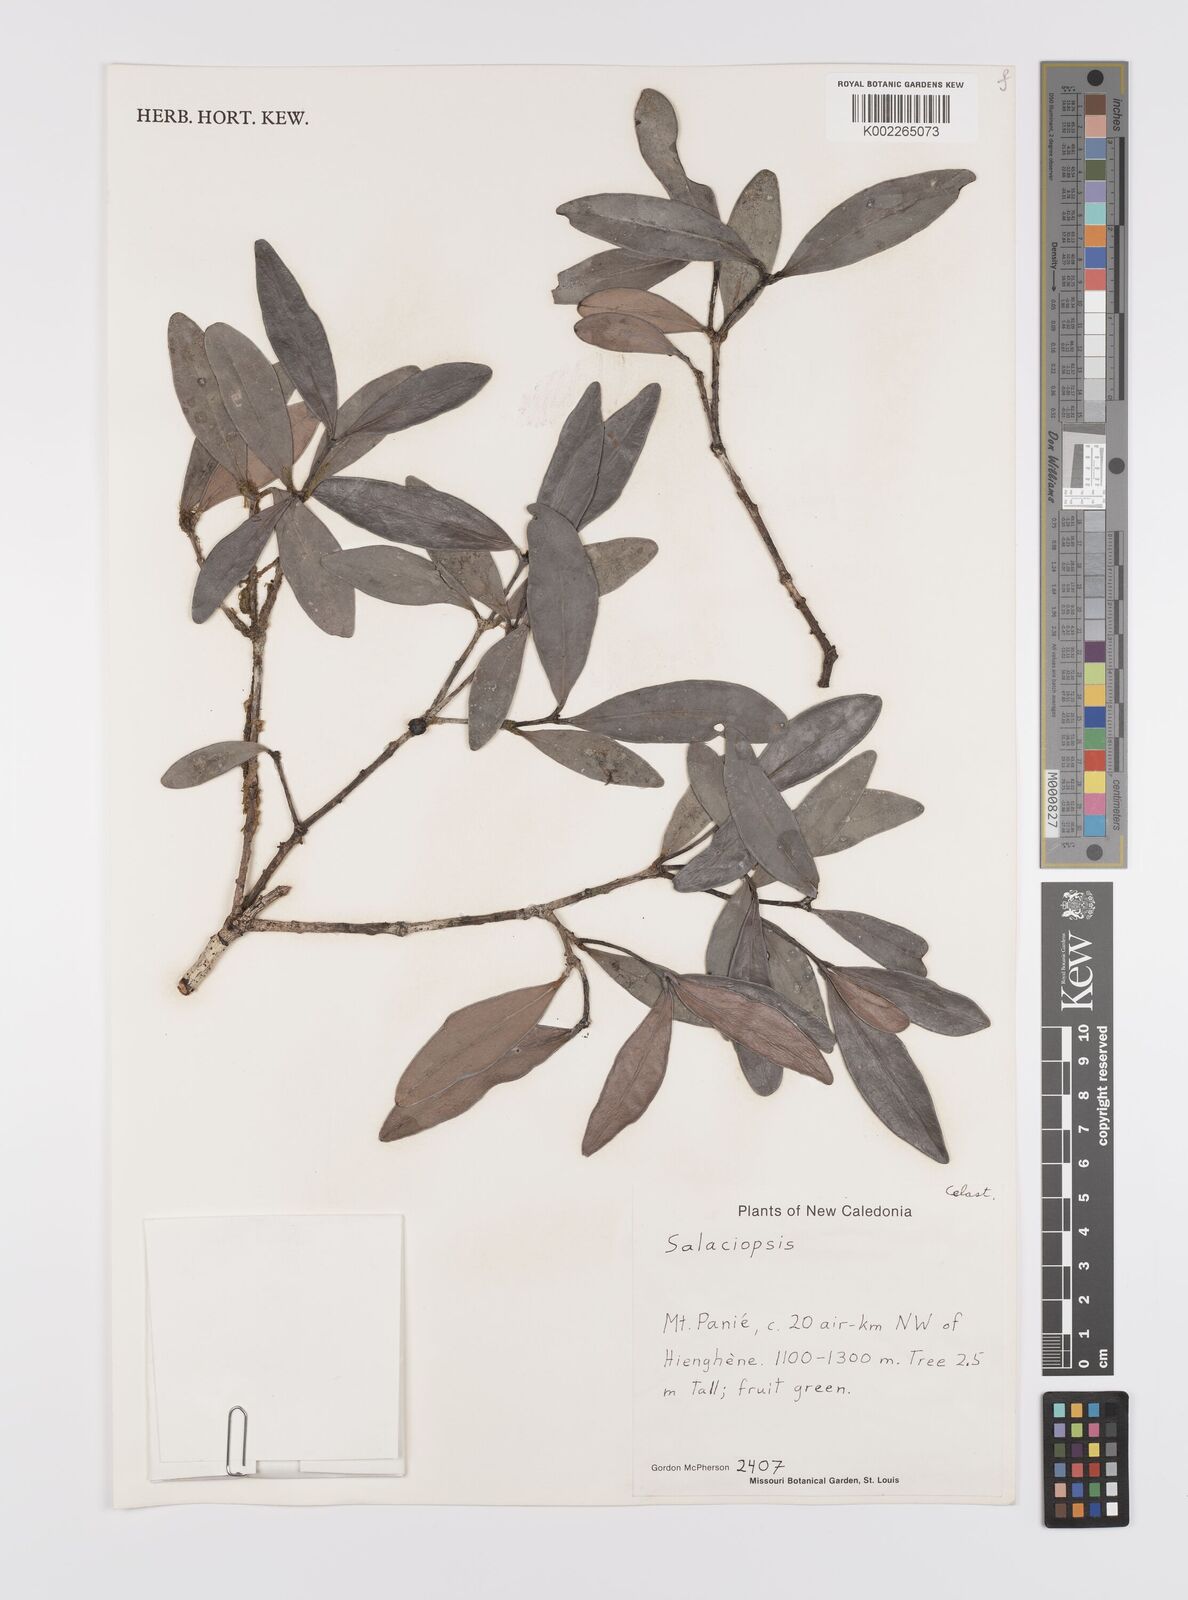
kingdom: Plantae
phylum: Tracheophyta
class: Magnoliopsida
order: Celastrales
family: Celastraceae
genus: Salaciopsis
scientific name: Salaciopsis
